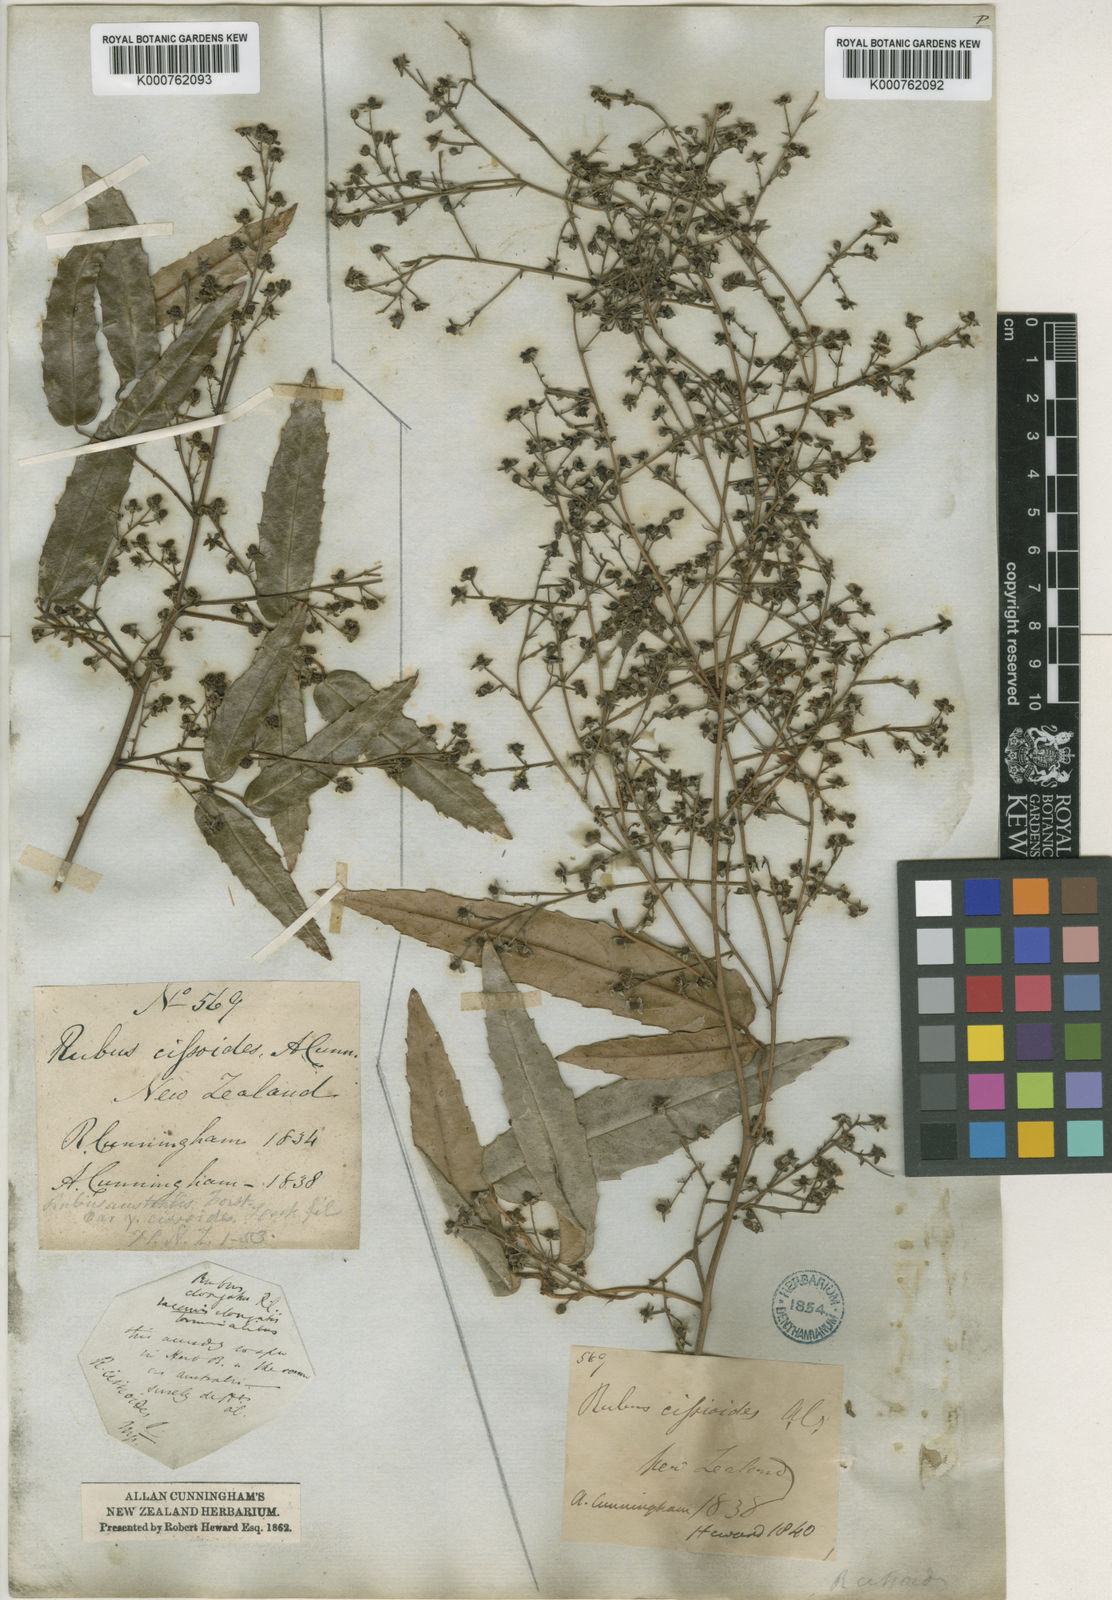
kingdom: Plantae
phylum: Tracheophyta
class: Magnoliopsida
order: Rosales
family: Rosaceae
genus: Rubus
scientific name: Rubus cissoides
